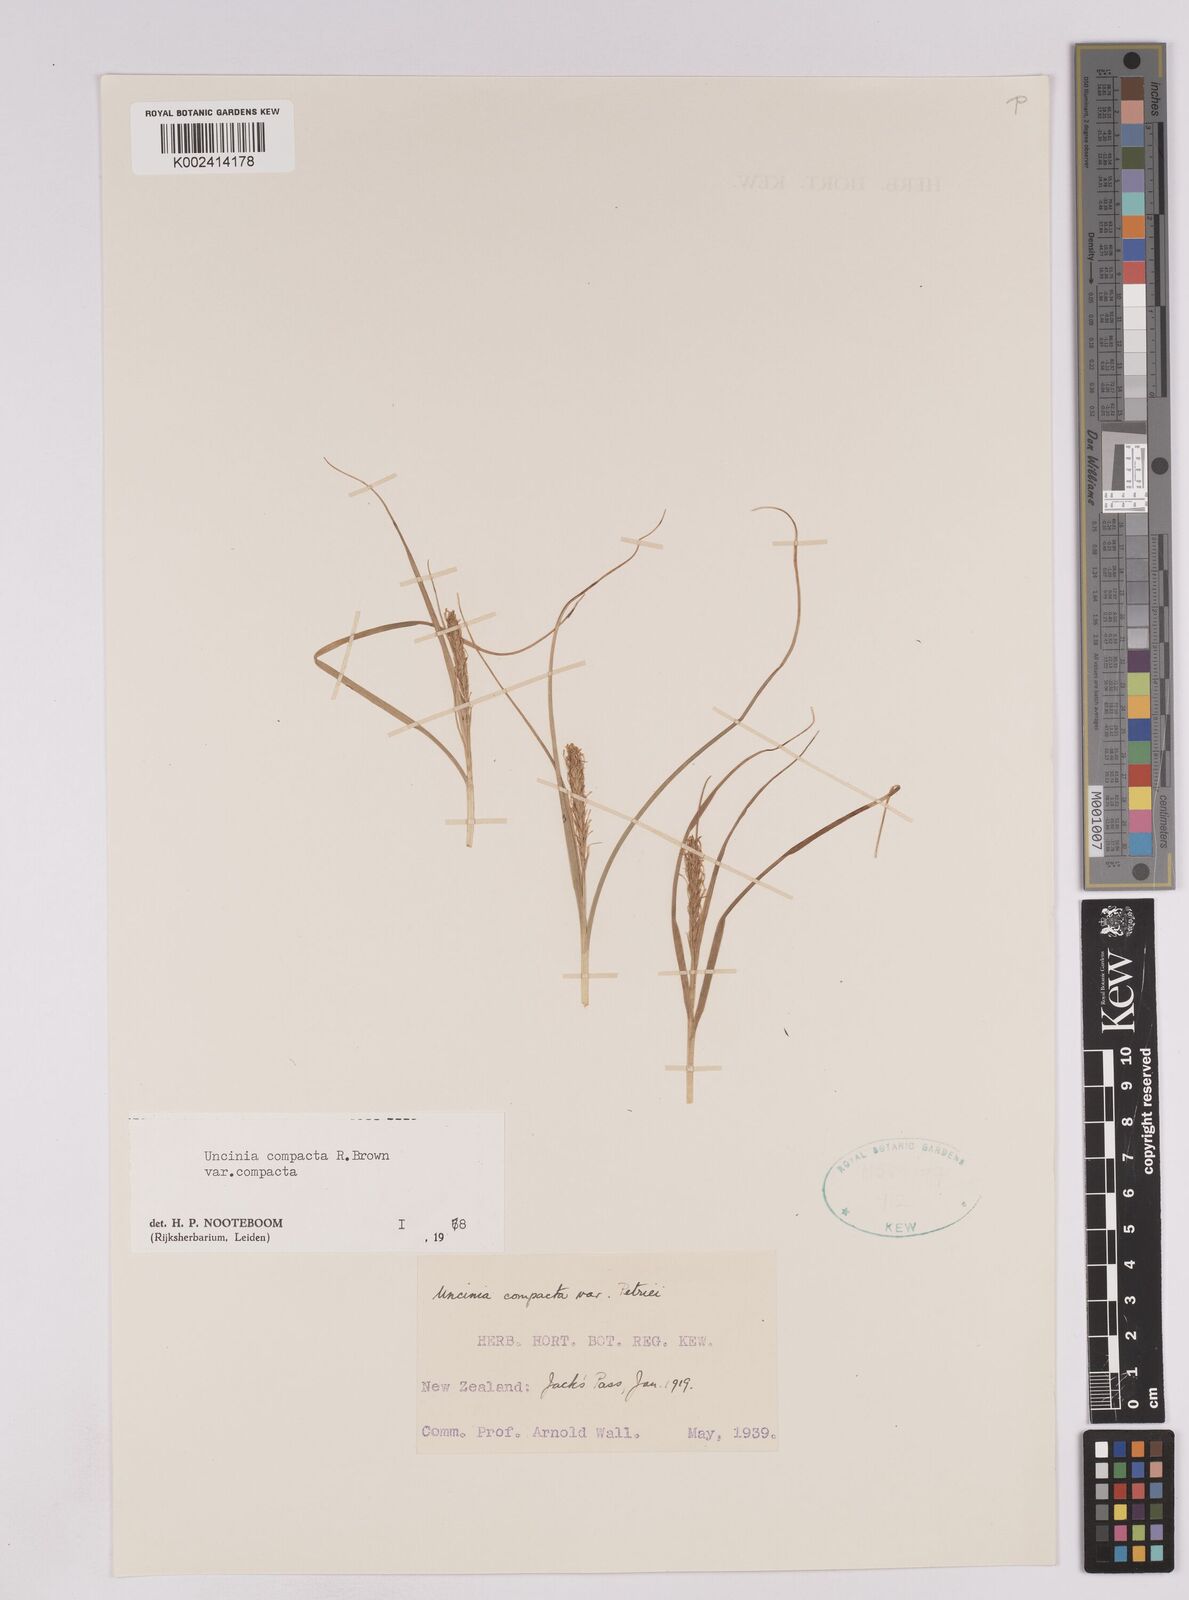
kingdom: Plantae
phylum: Tracheophyta
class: Liliopsida
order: Poales
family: Cyperaceae
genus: Carex
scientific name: Carex austrocompacta
